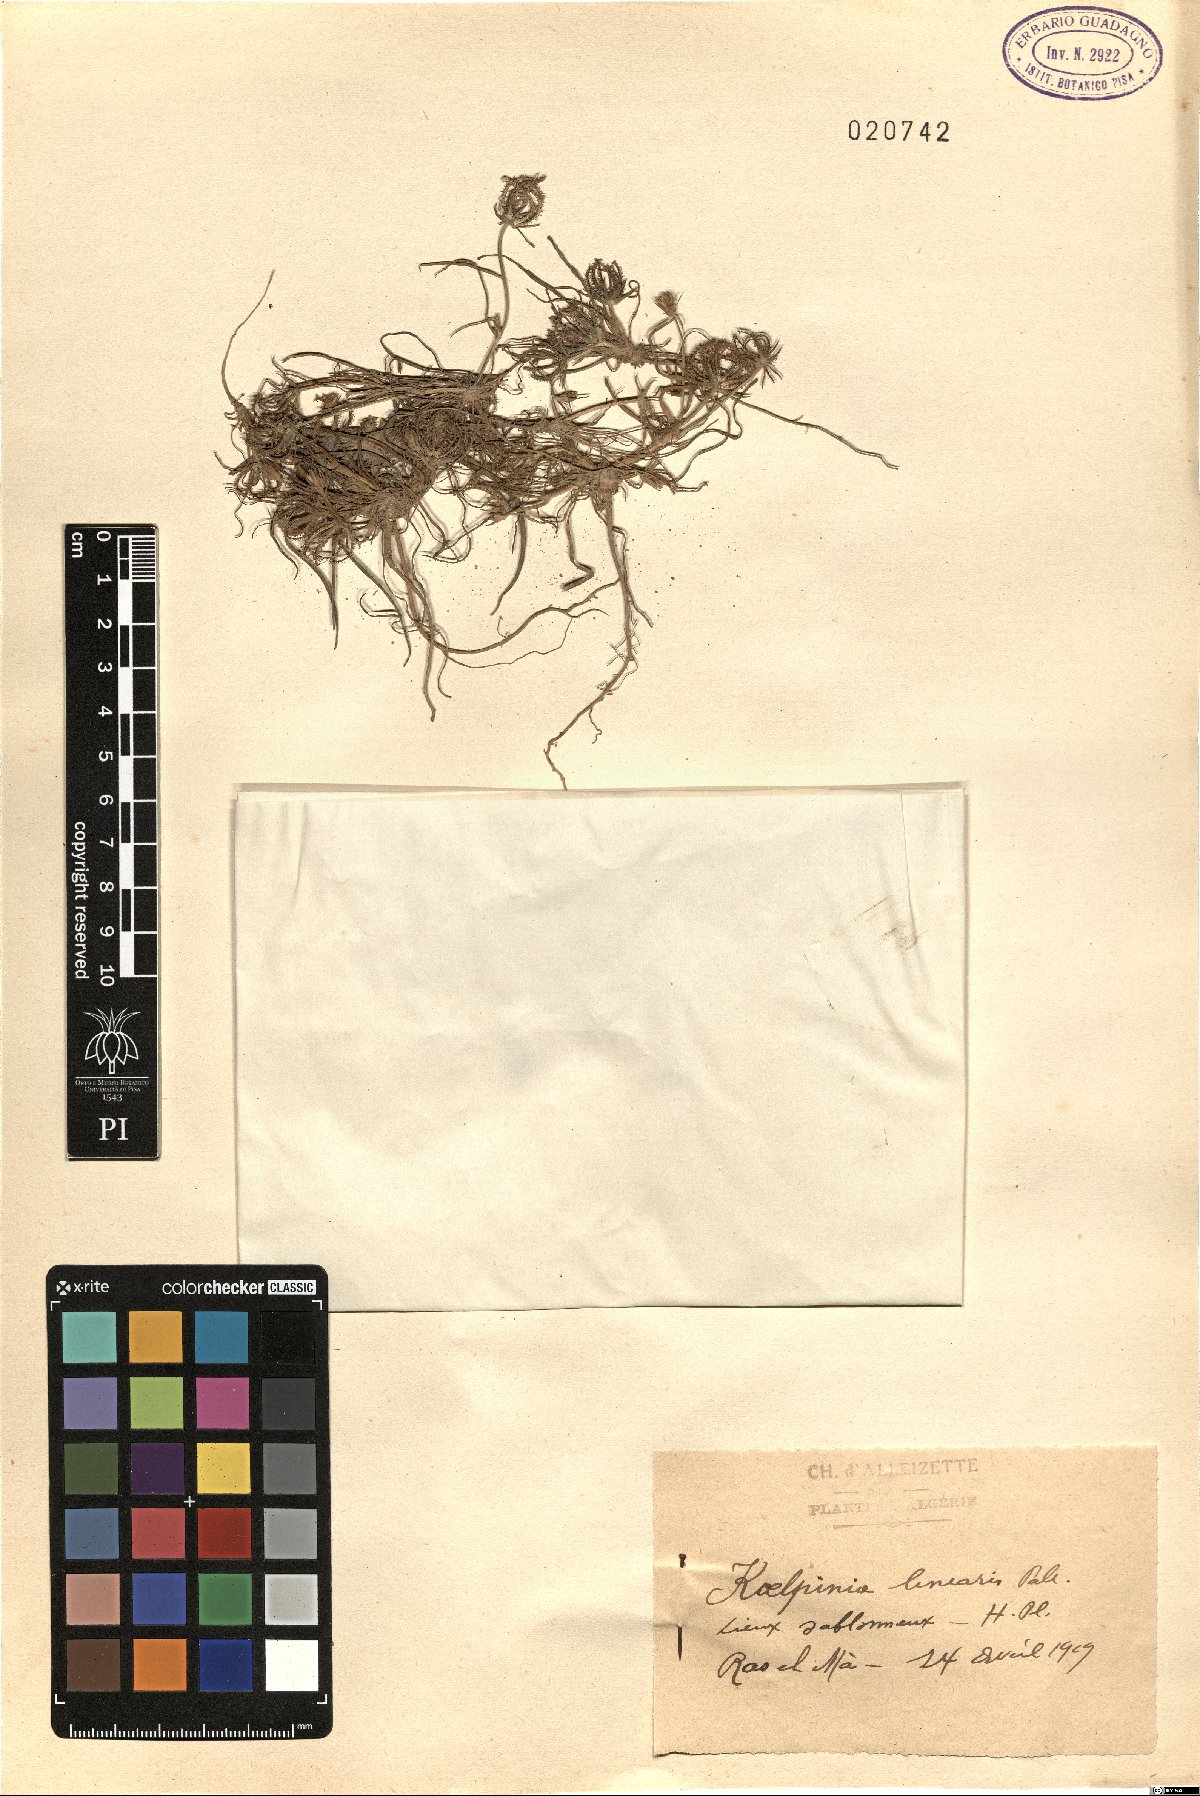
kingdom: Plantae
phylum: Tracheophyta
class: Magnoliopsida
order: Asterales
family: Asteraceae
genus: Koelpinia
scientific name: Koelpinia linearis
